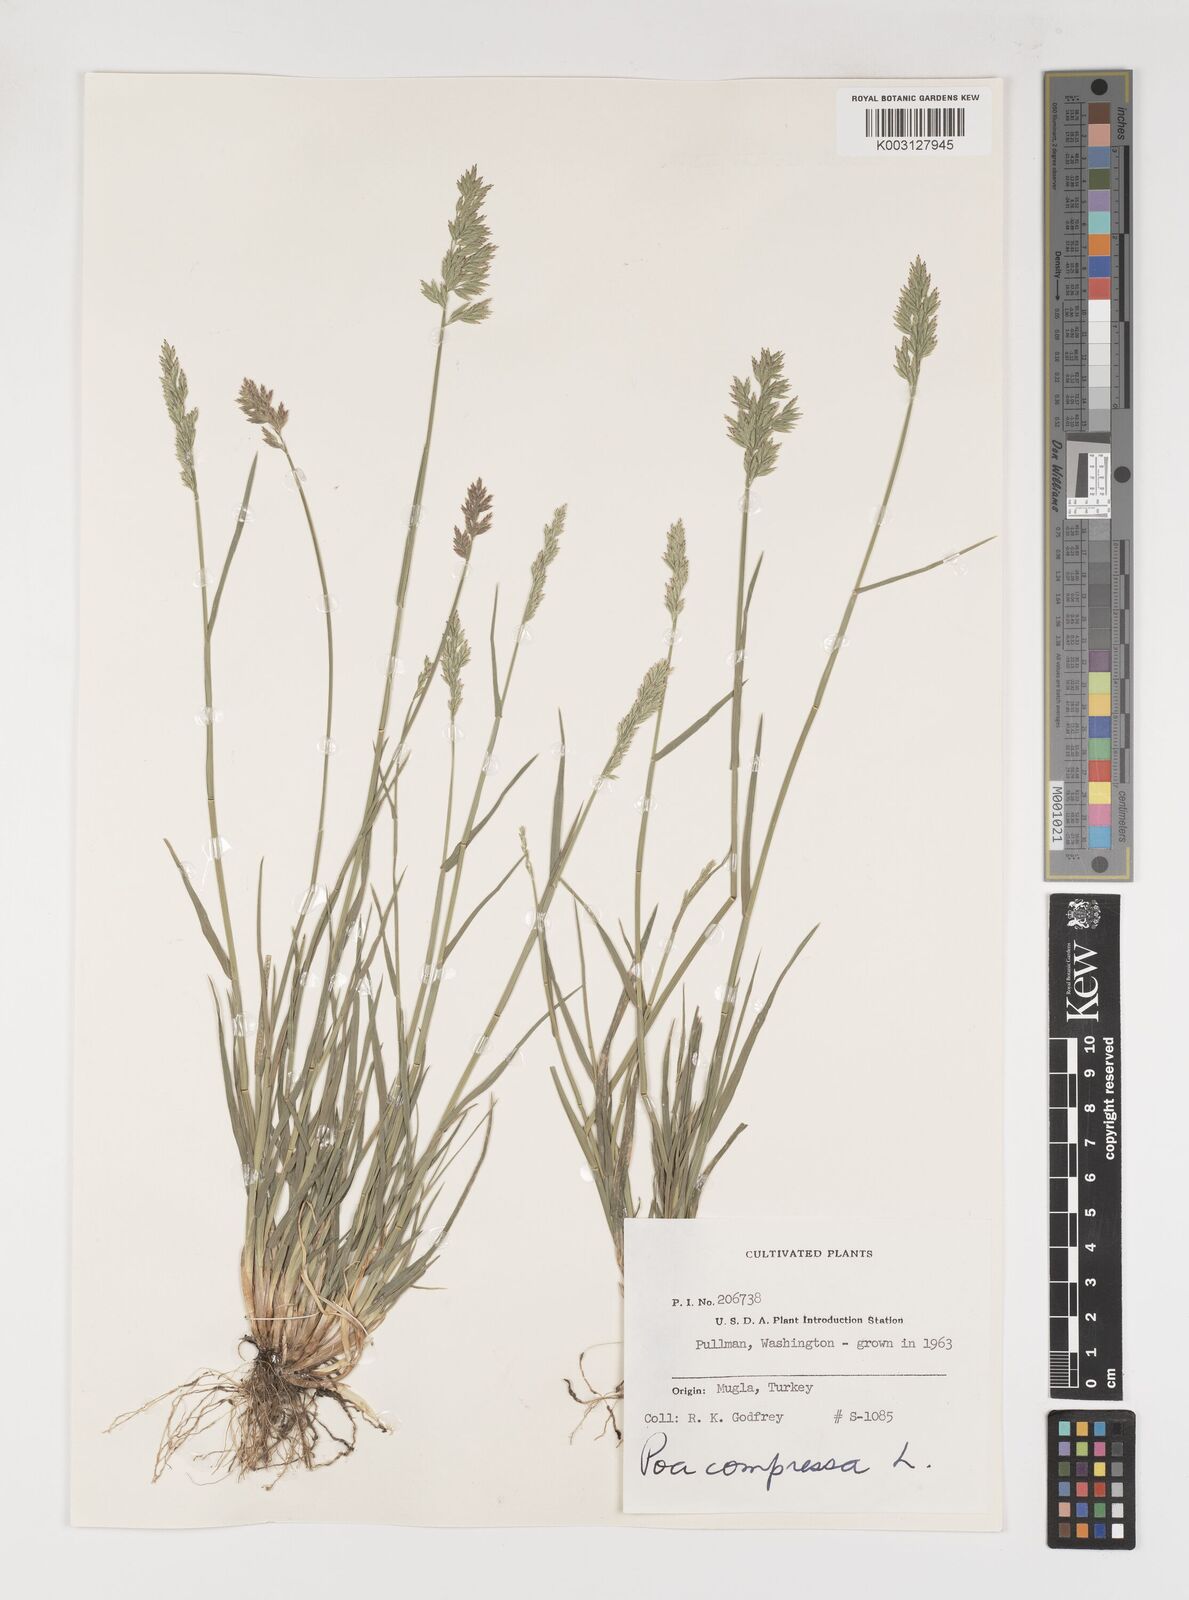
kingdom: Plantae
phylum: Tracheophyta
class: Liliopsida
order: Poales
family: Poaceae
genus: Poa
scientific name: Poa compressa
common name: Canada bluegrass
